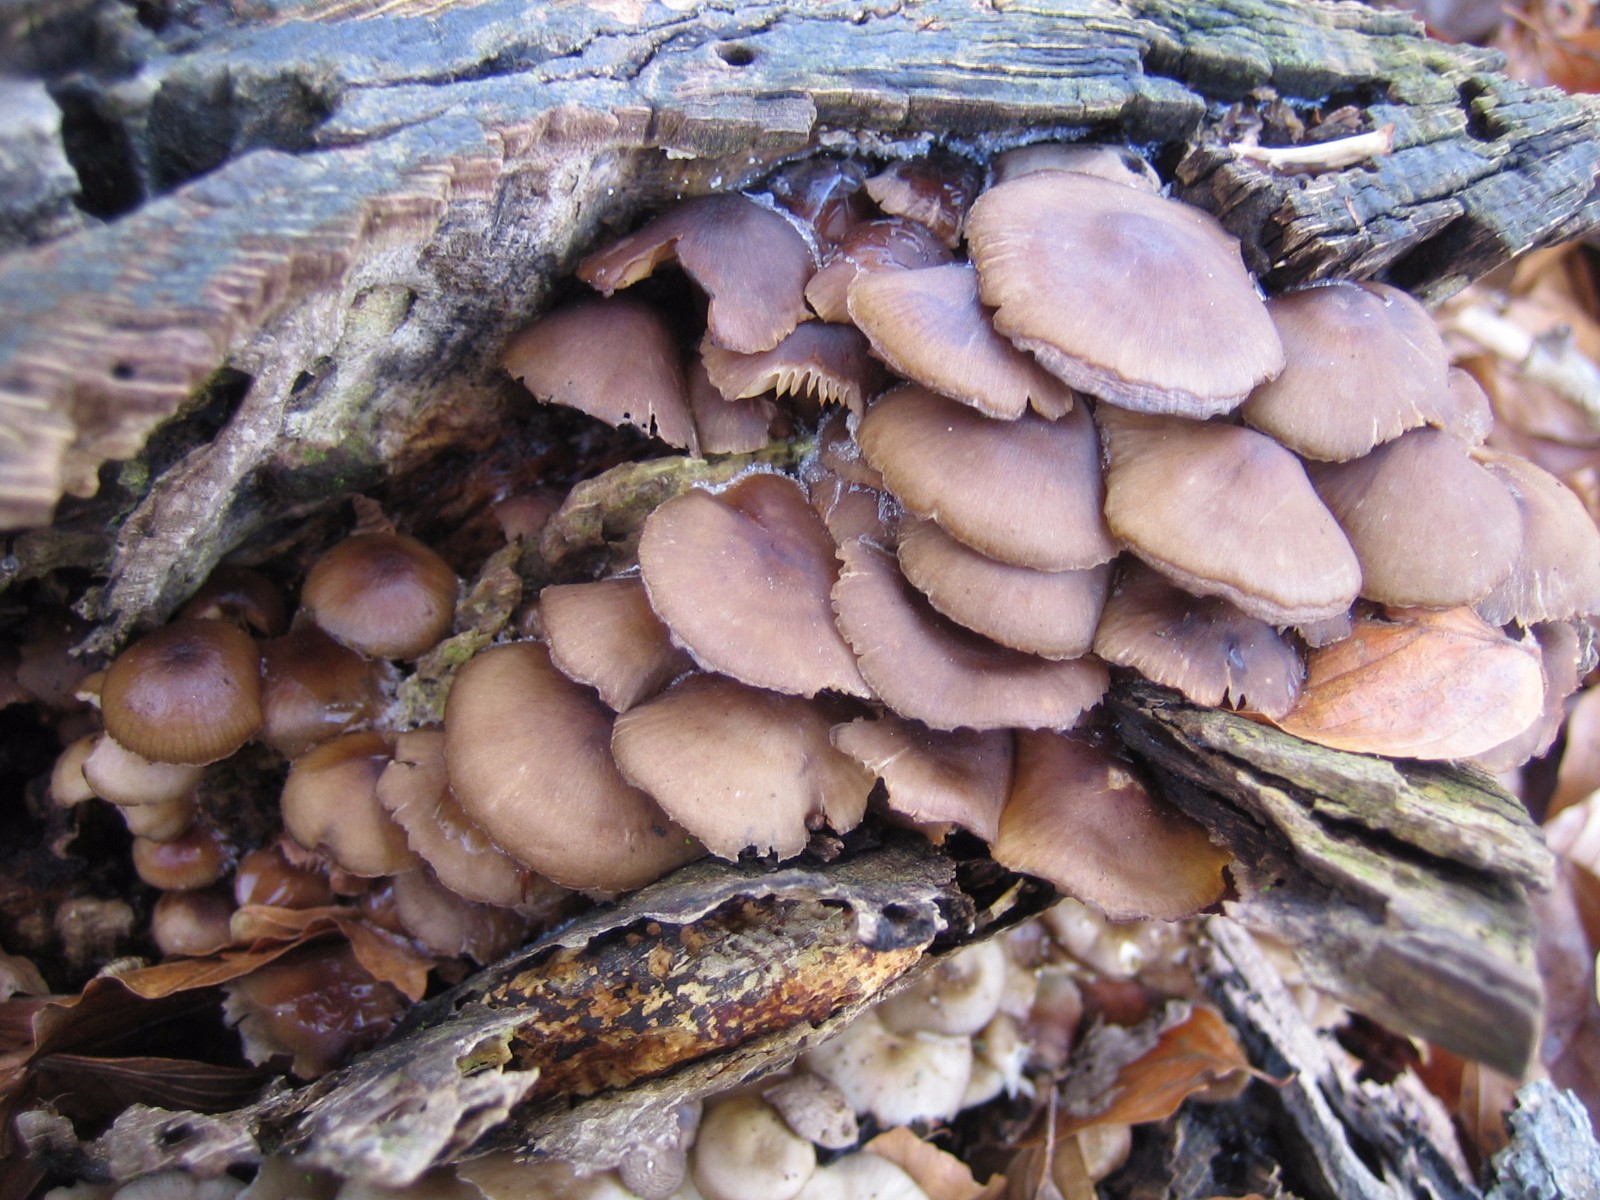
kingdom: Fungi
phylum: Basidiomycota
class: Agaricomycetes
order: Agaricales
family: Mycenaceae
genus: Mycena
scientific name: Mycena tintinnabulum
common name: vinter-huesvamp
